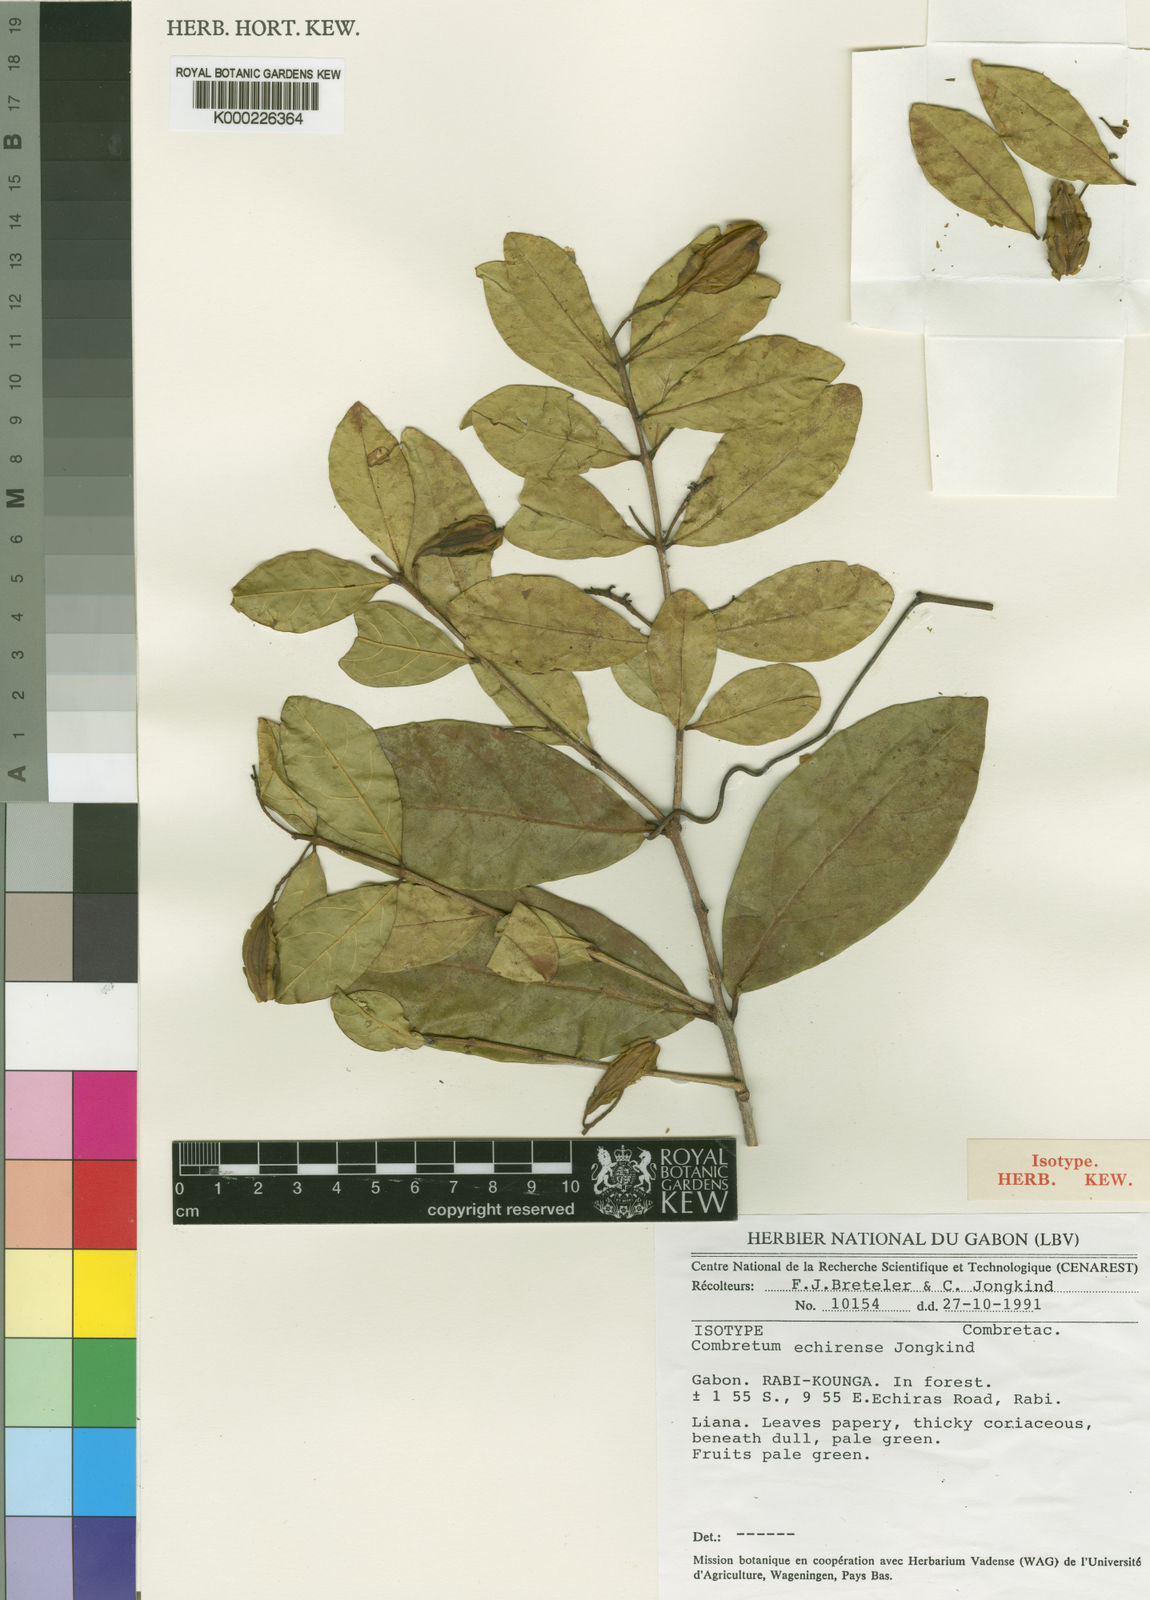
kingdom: Plantae
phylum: Tracheophyta
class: Magnoliopsida
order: Myrtales
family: Combretaceae
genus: Combretum
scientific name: Combretum echirense
